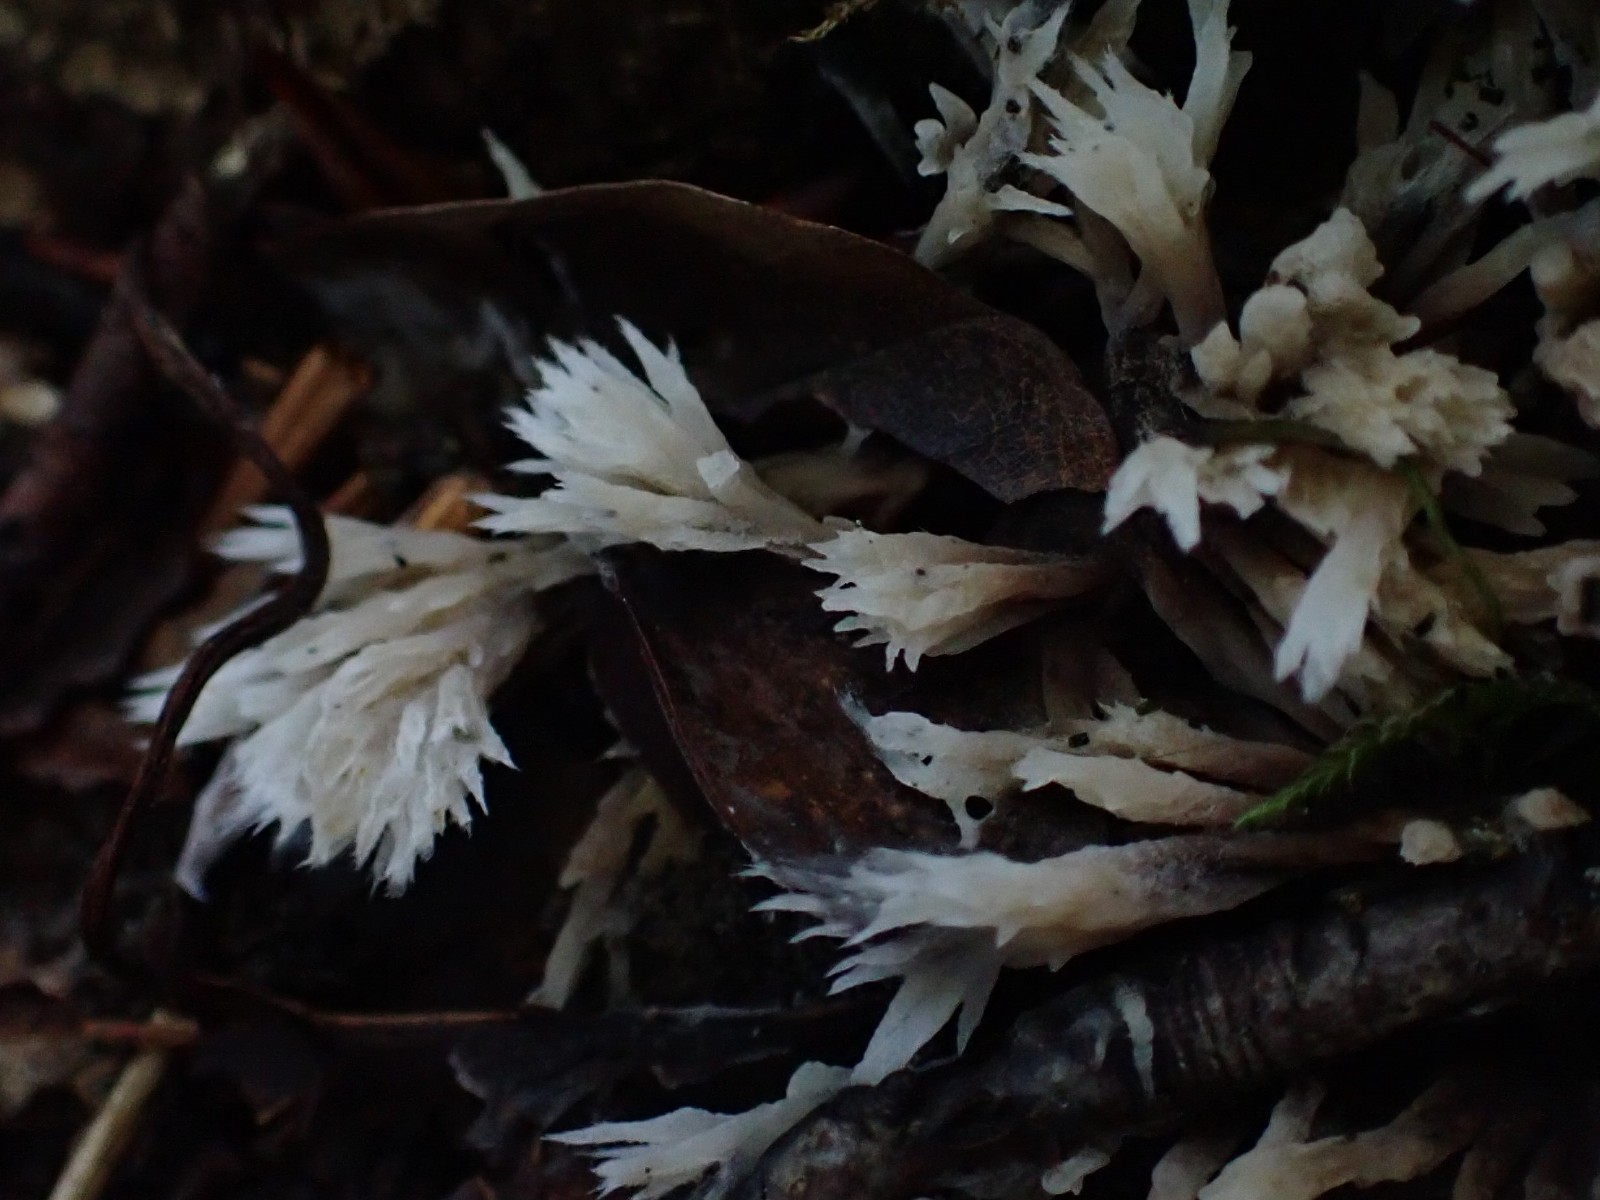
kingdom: Fungi
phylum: Basidiomycota
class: Agaricomycetes
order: Thelephorales
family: Thelephoraceae
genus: Thelephora
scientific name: Thelephora penicillata
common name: fladtrådt frynsesvamp
